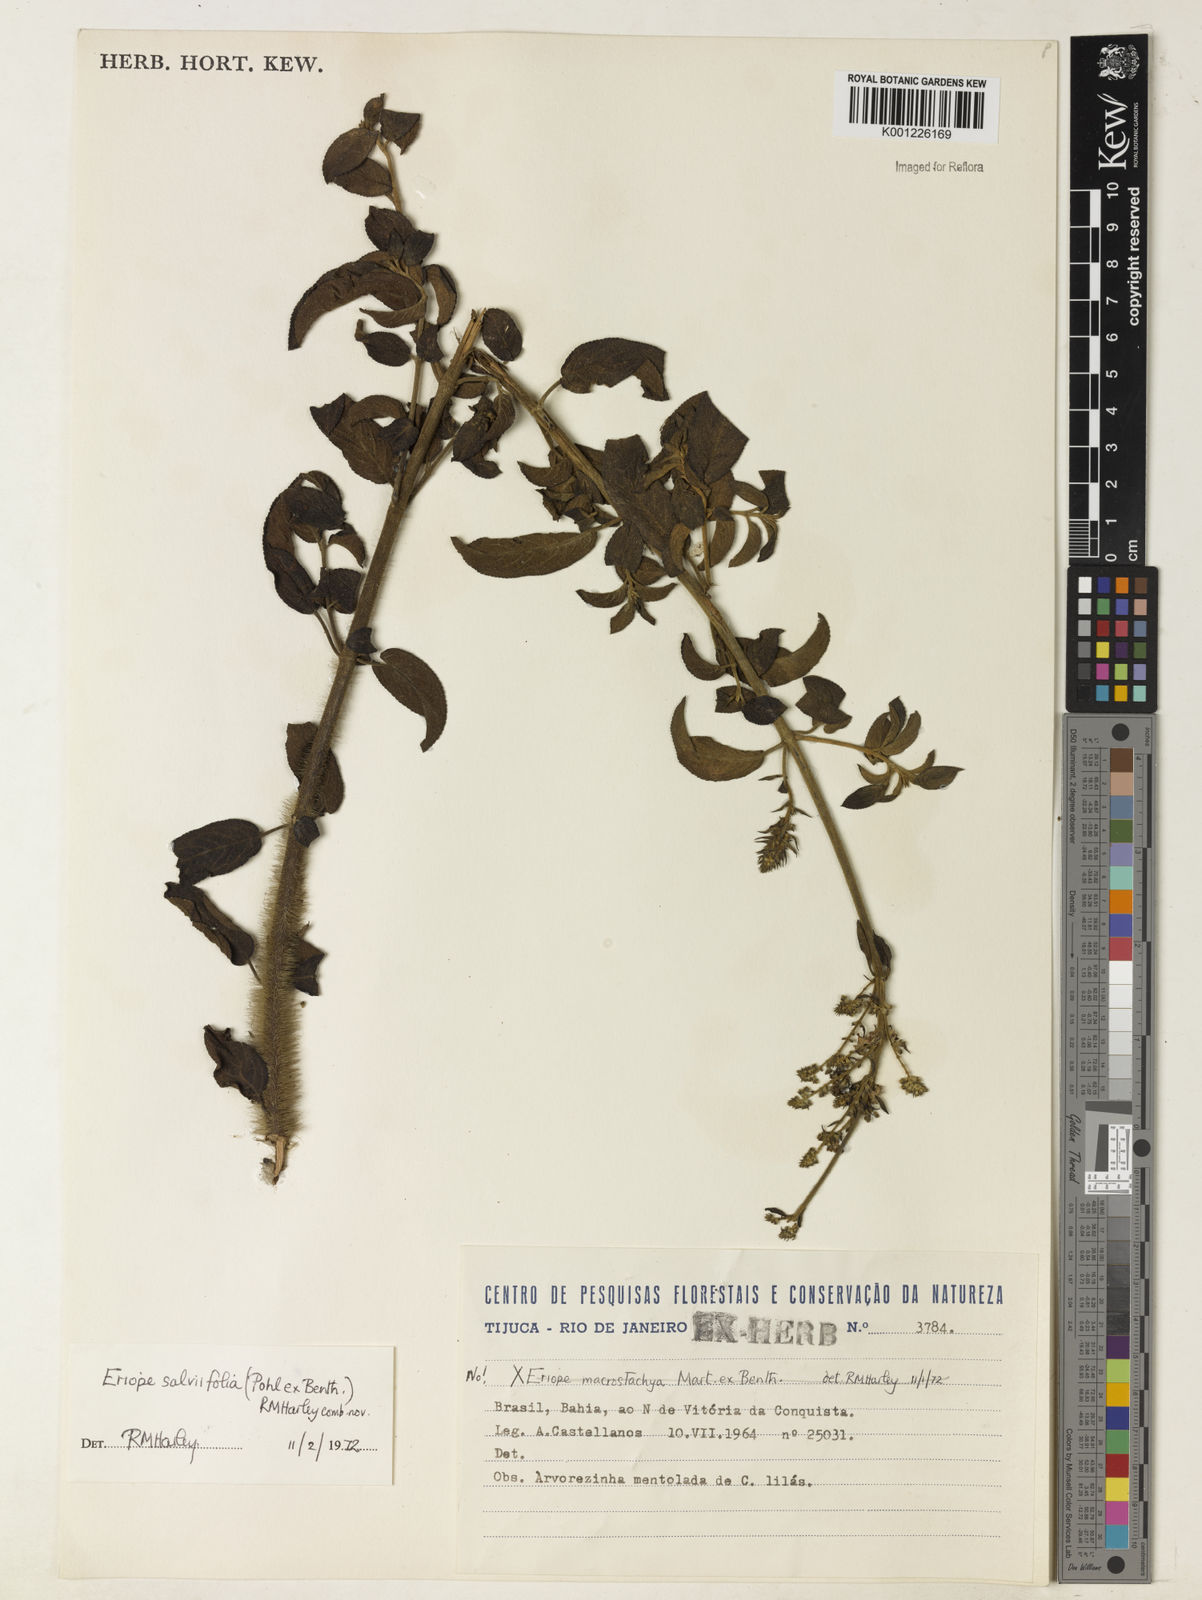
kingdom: Plantae
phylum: Tracheophyta
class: Magnoliopsida
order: Lamiales
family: Lamiaceae
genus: Eriope
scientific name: Eriope salviifolia
